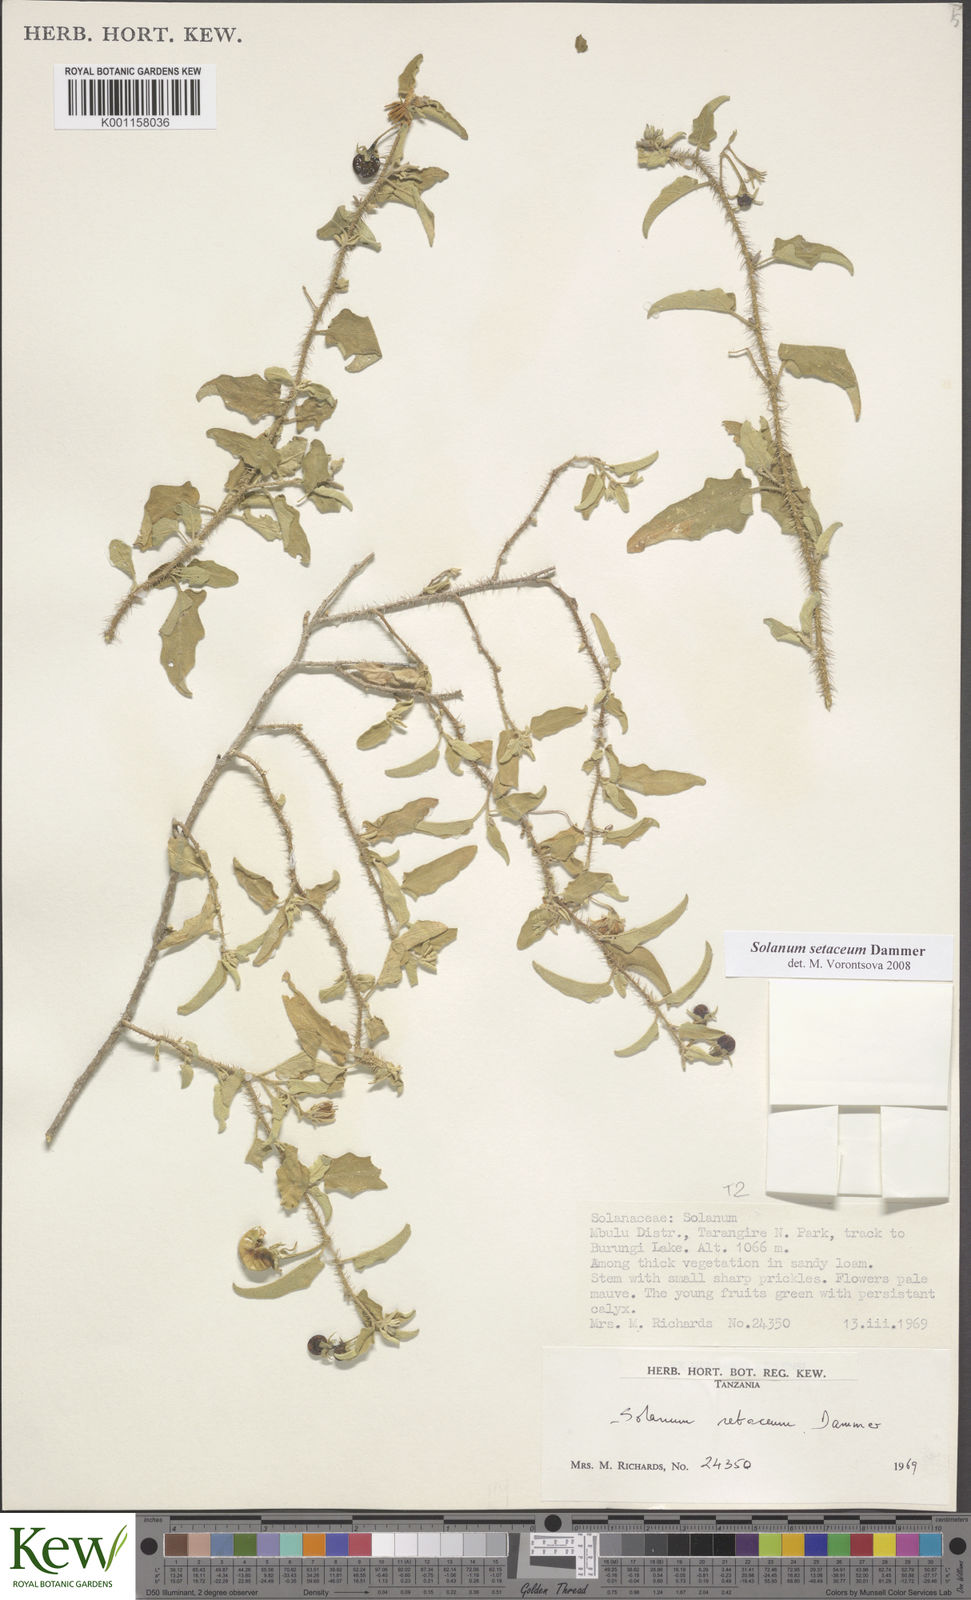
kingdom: Plantae
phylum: Tracheophyta
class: Magnoliopsida
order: Solanales
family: Solanaceae
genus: Solanum
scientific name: Solanum setaceum
